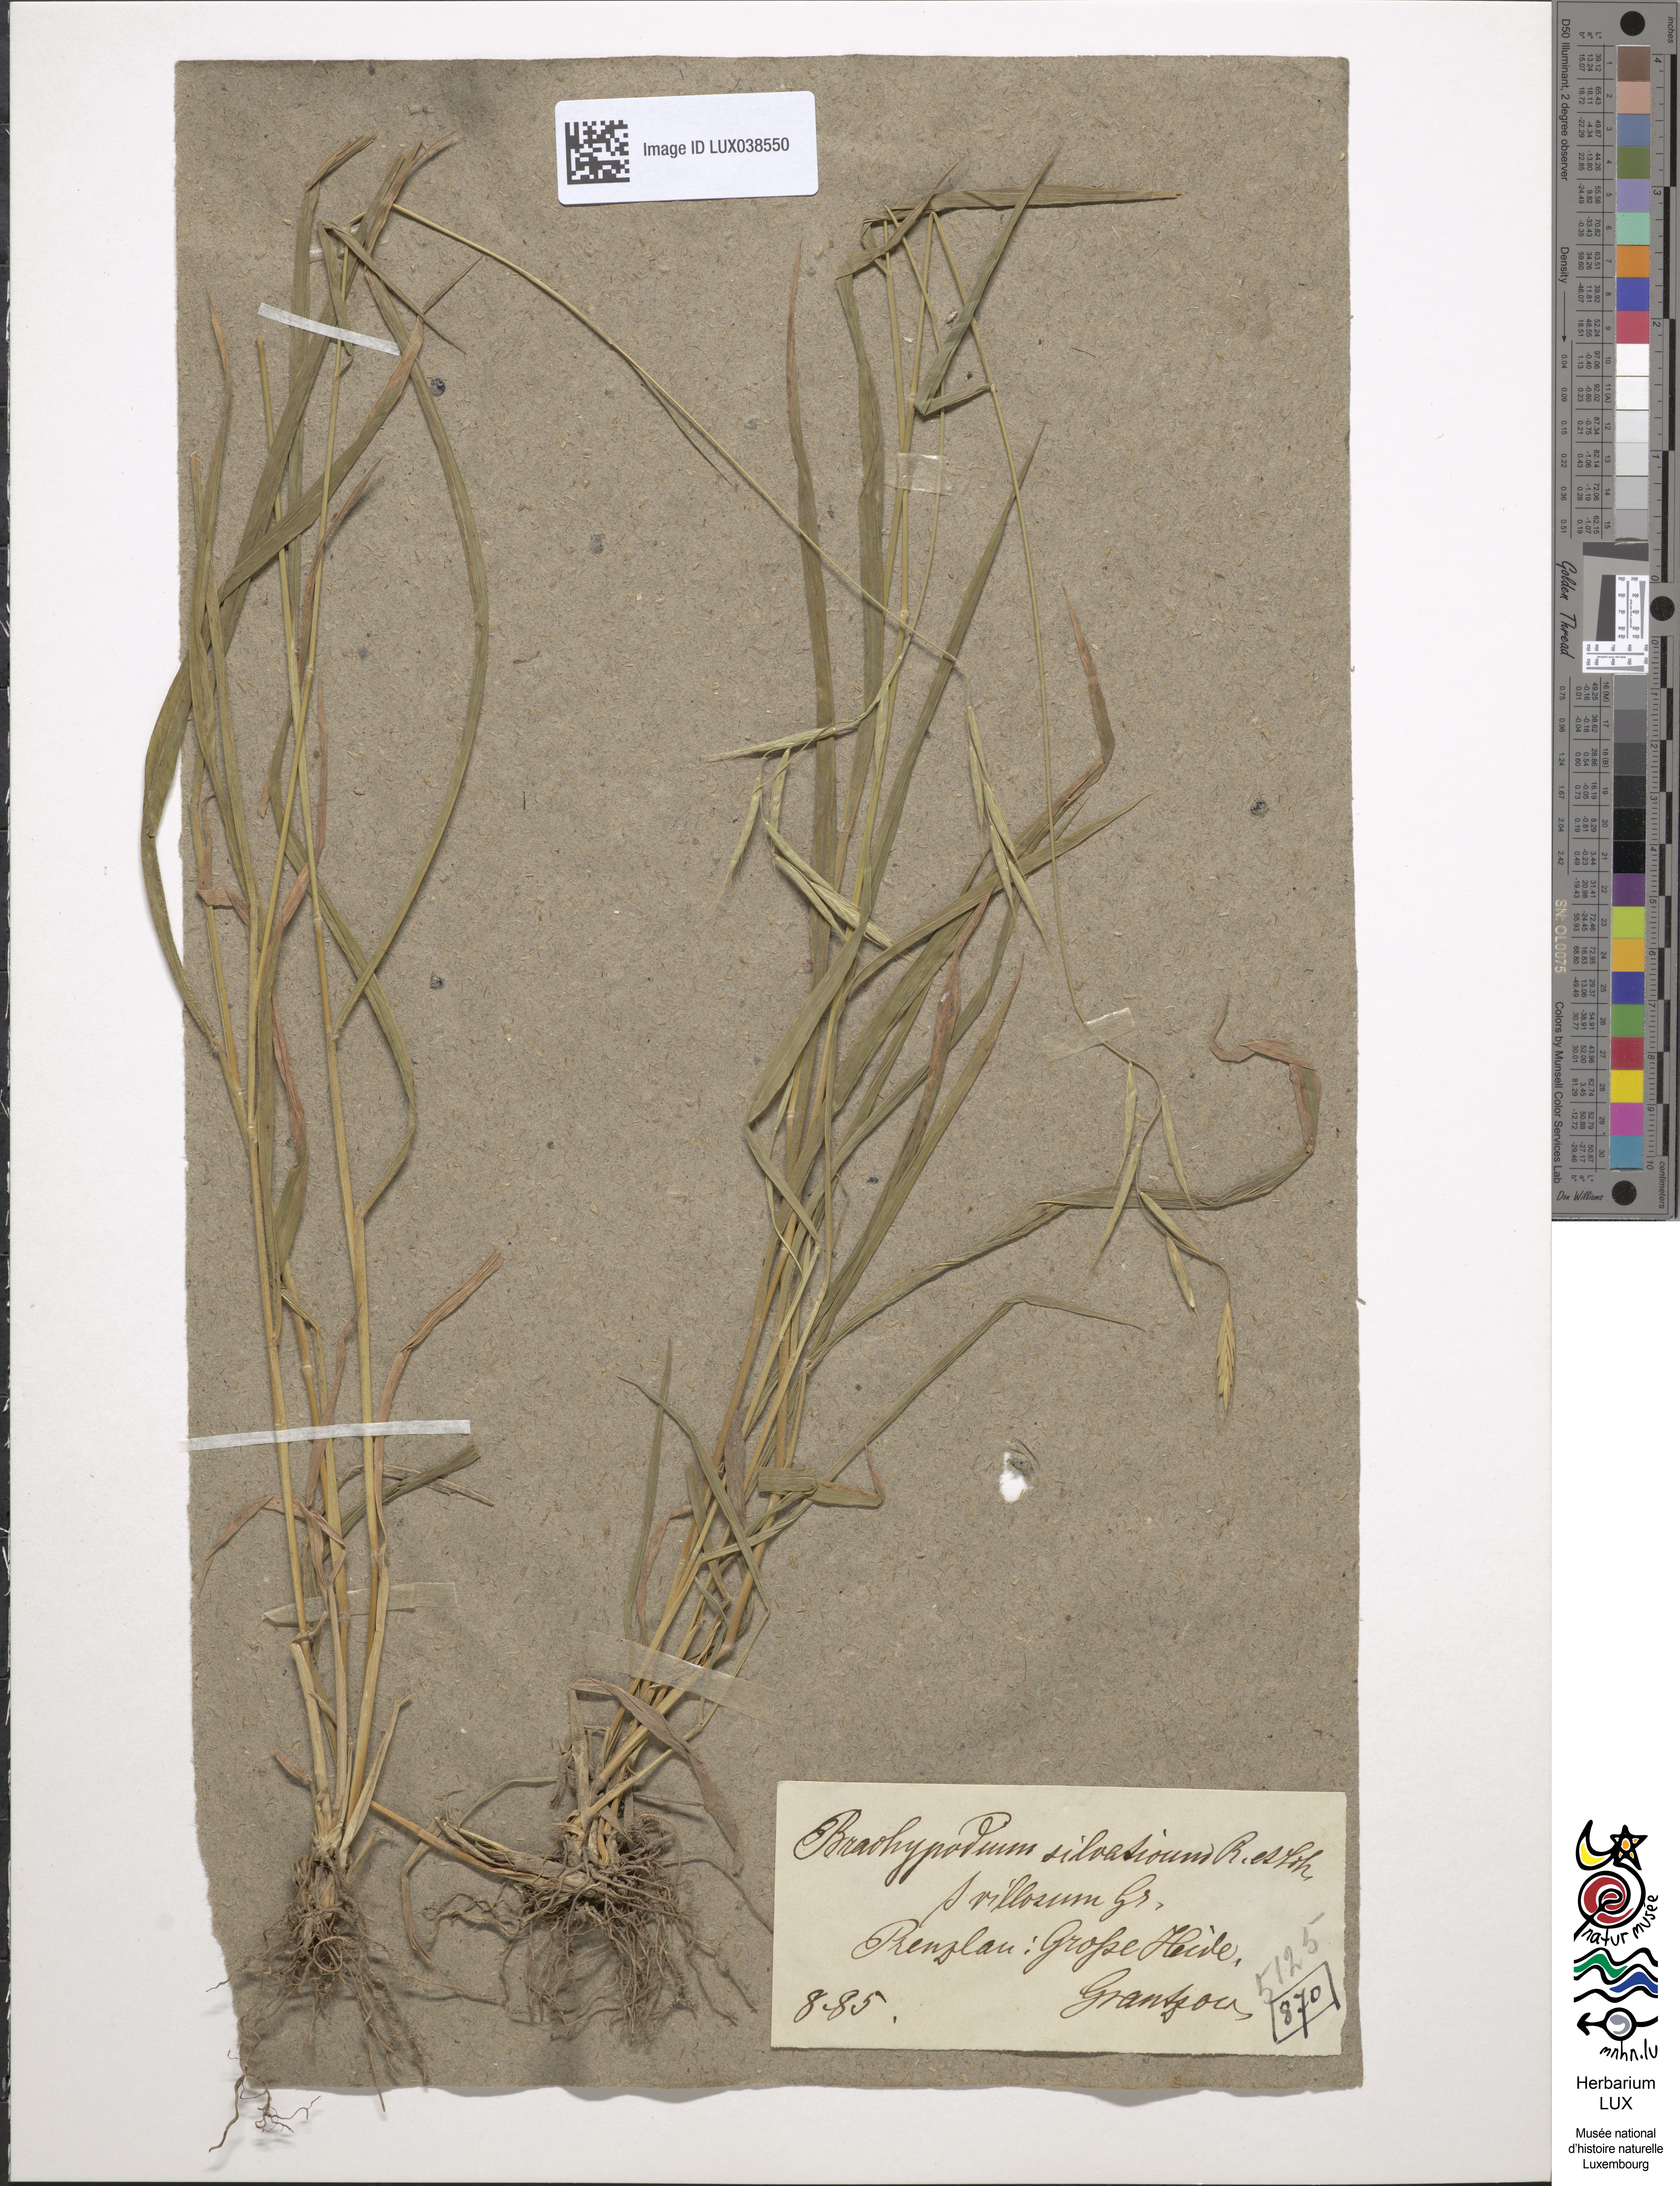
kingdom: Plantae
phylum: Tracheophyta
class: Liliopsida
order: Poales
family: Poaceae
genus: Brachypodium
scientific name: Brachypodium sylvaticum
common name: False-brome
